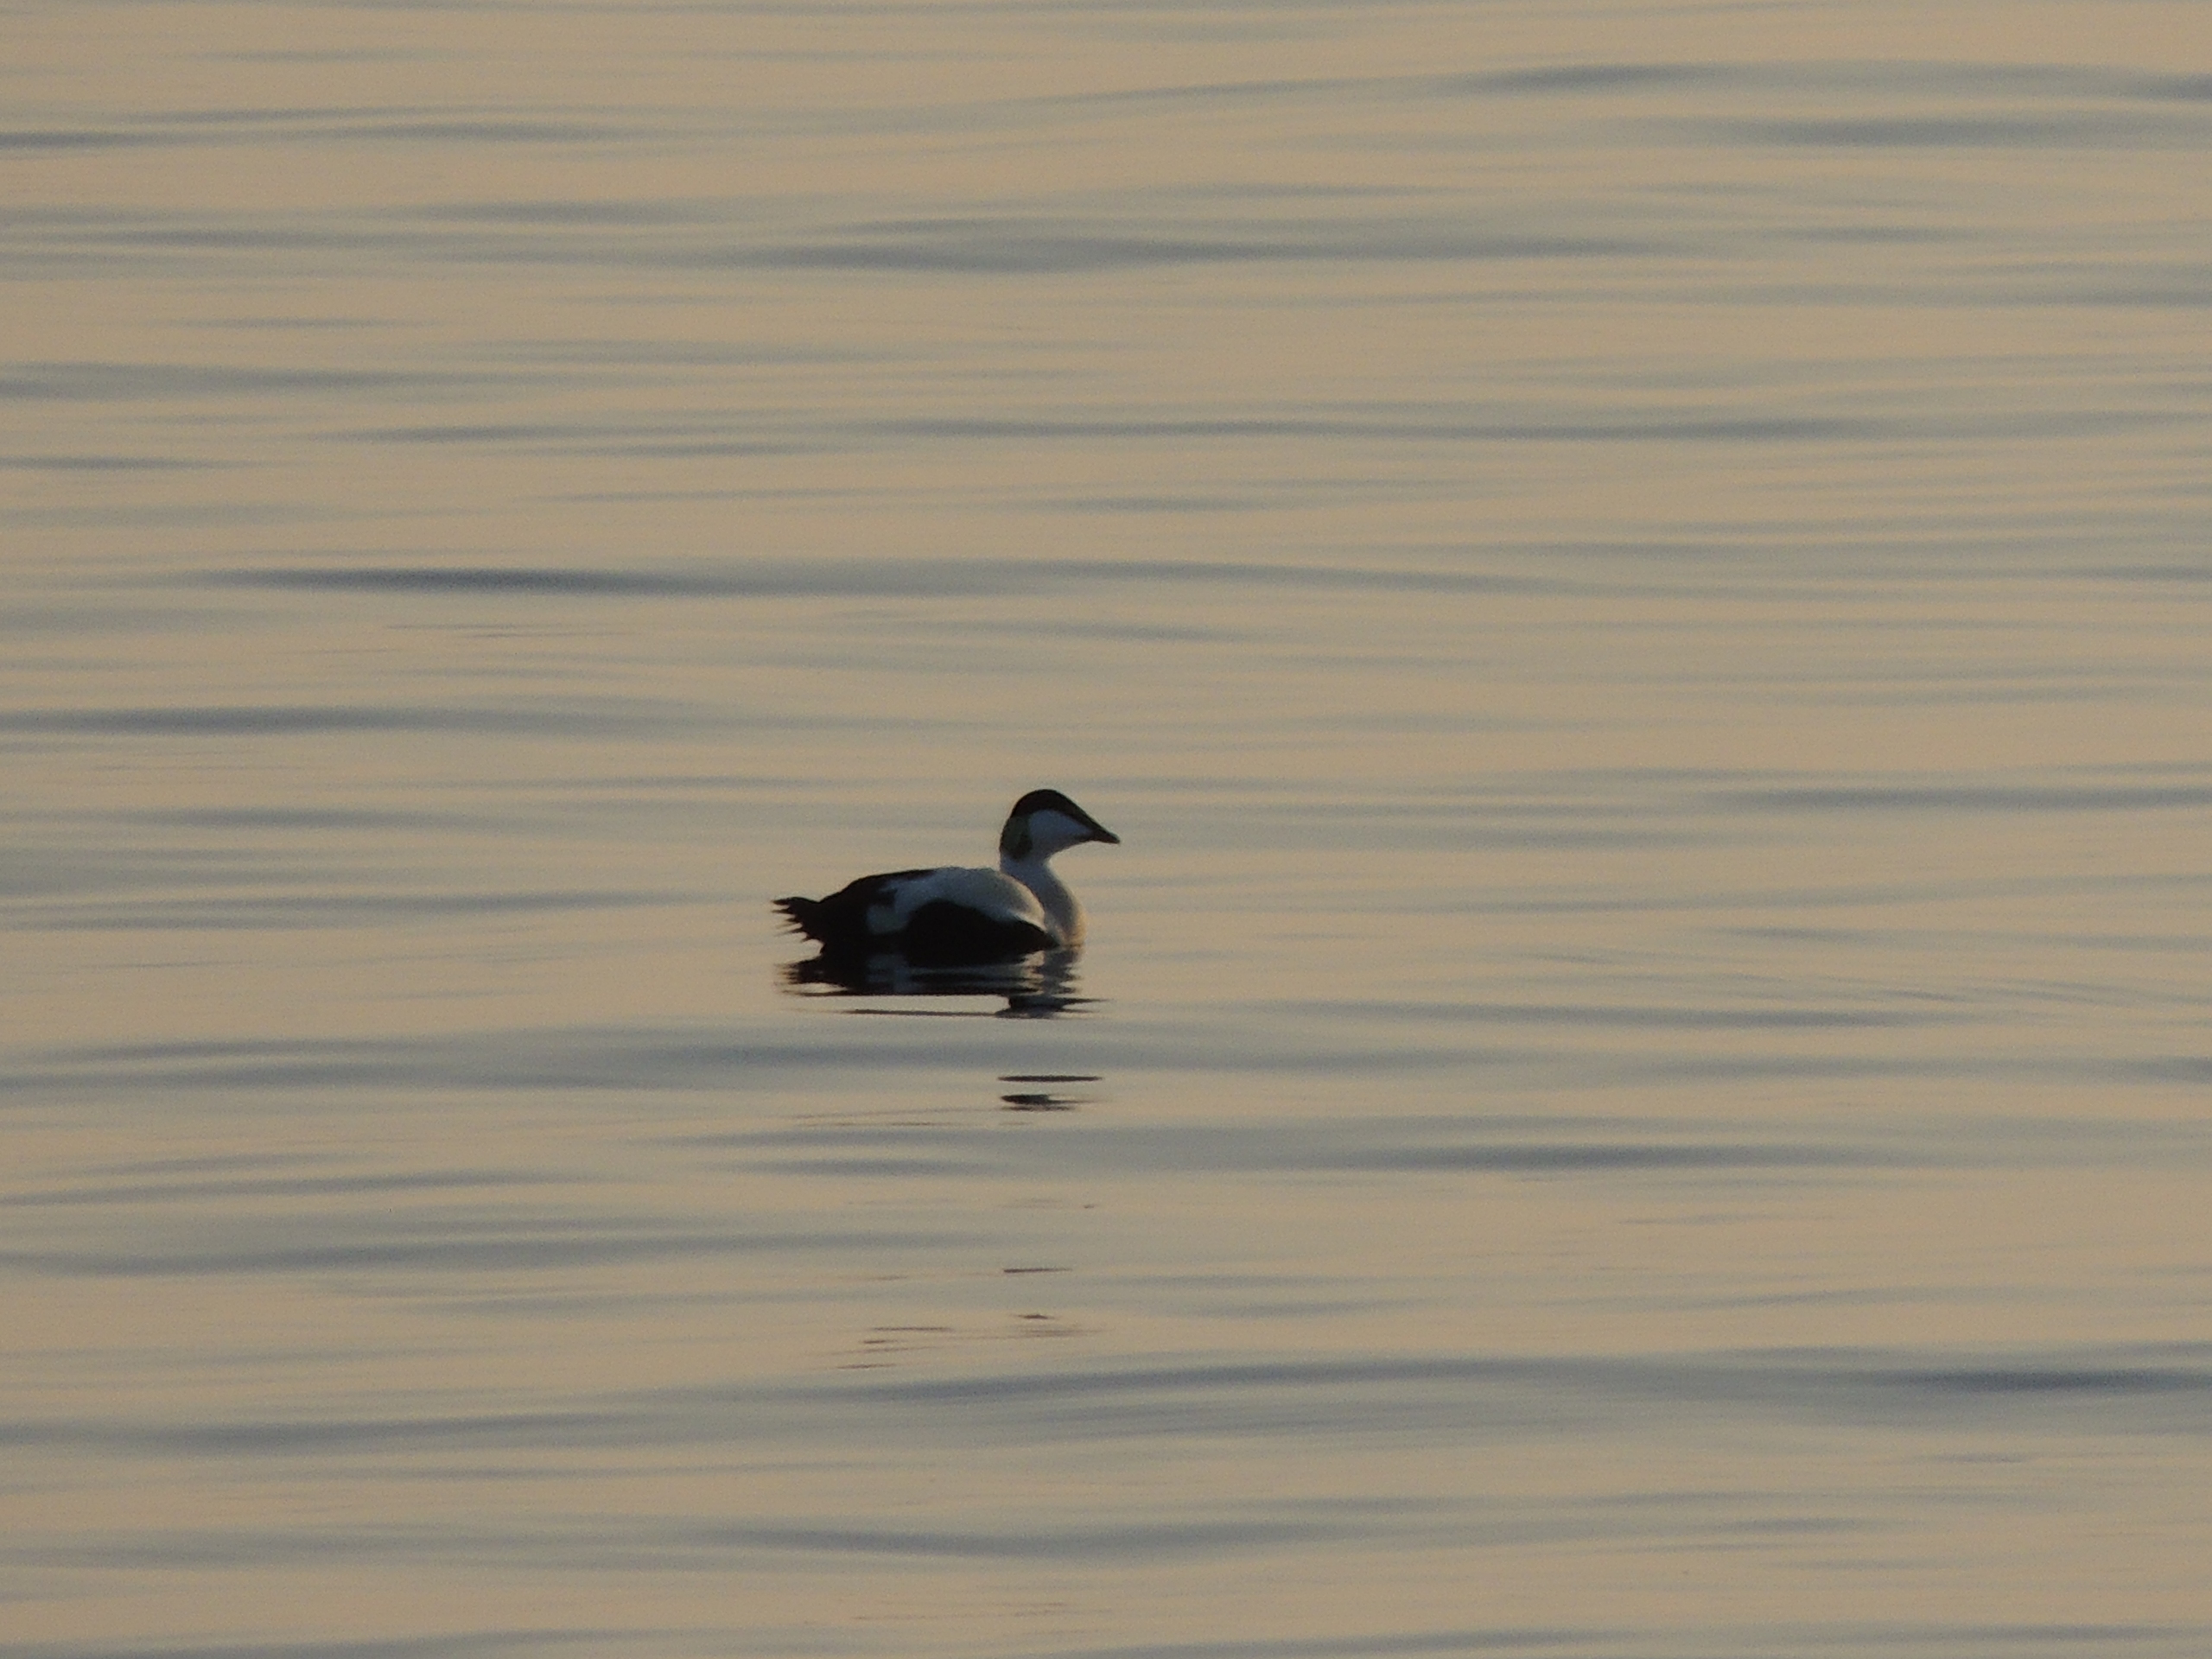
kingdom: Animalia
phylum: Chordata
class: Aves
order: Anseriformes
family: Anatidae
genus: Somateria
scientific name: Somateria mollissima
